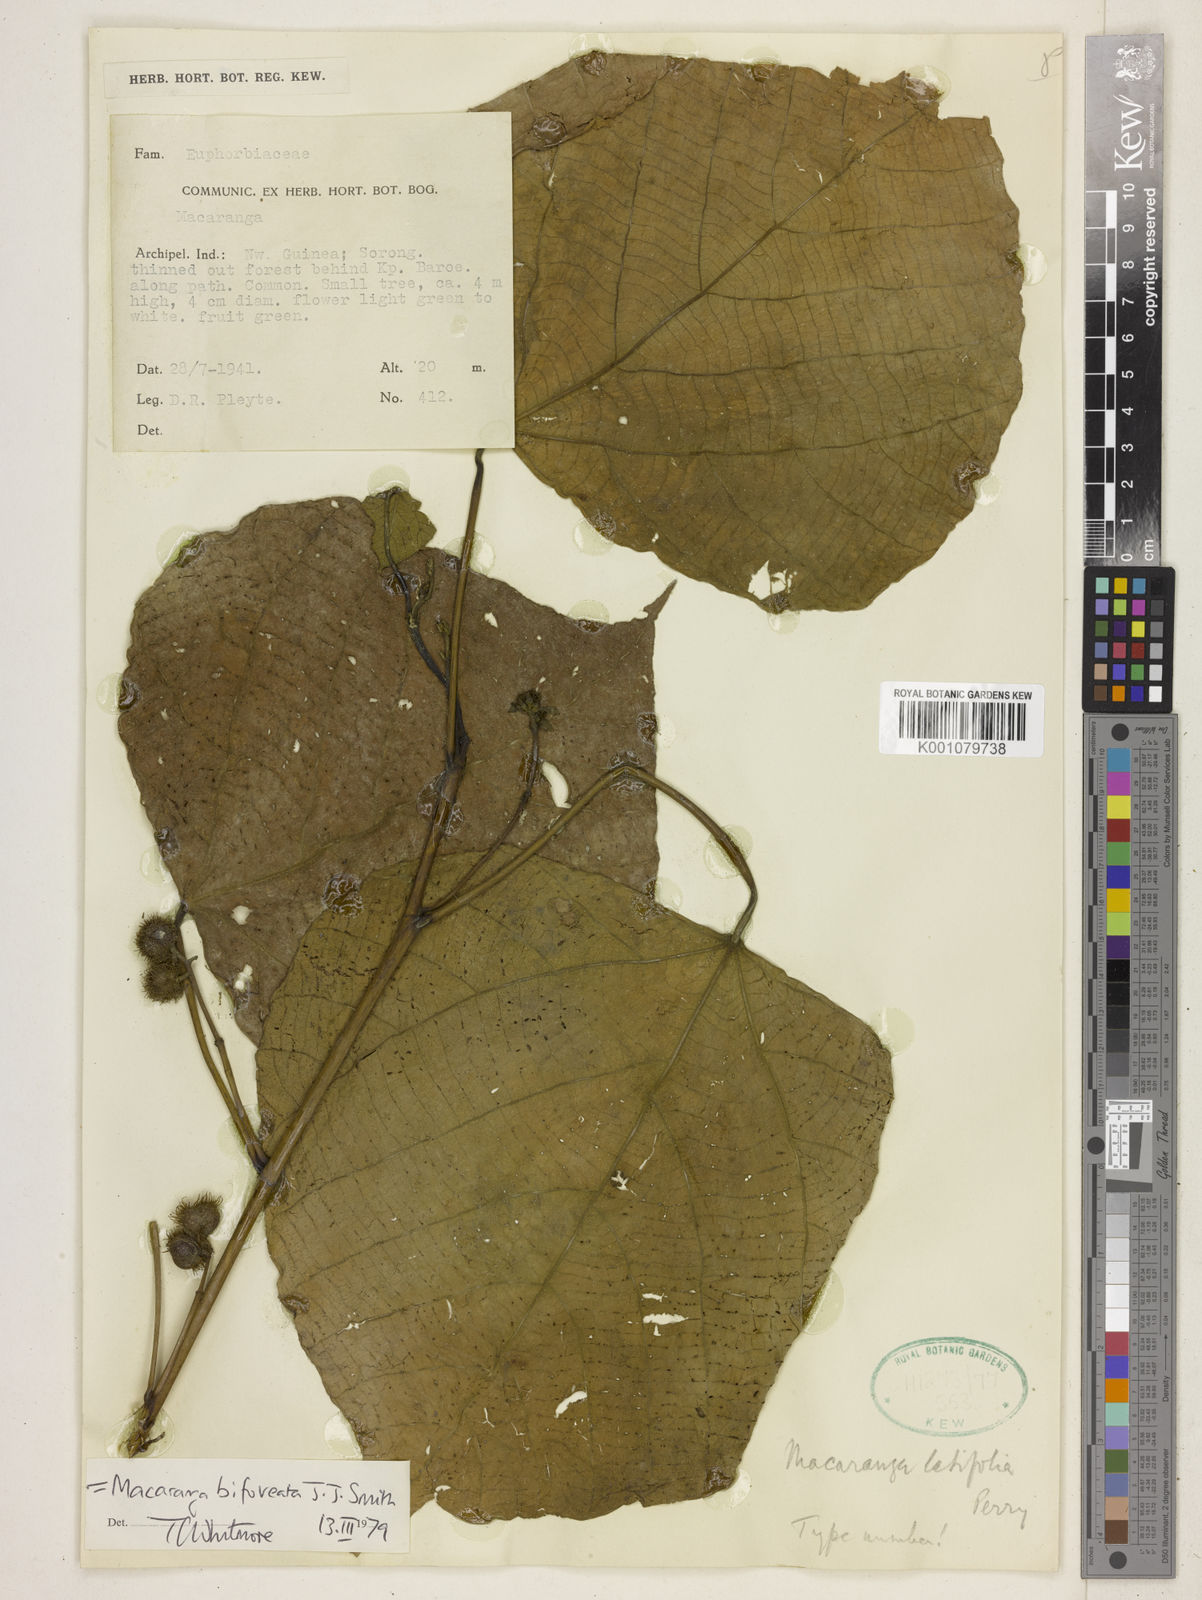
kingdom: Plantae
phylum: Tracheophyta
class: Magnoliopsida
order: Malpighiales
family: Euphorbiaceae
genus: Macaranga
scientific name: Macaranga bifoveata
